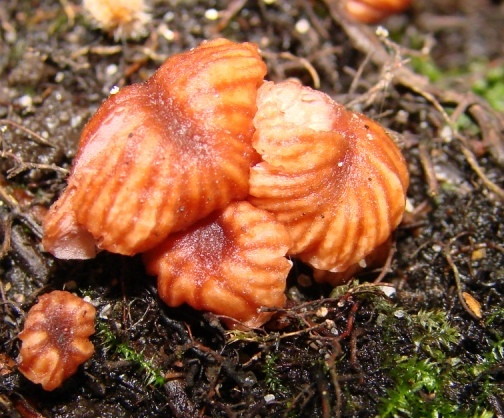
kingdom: Fungi
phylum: Basidiomycota
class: Agaricomycetes
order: Agaricales
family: Hydnangiaceae
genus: Laccaria
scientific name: Laccaria tortilis
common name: krybende ametysthat
